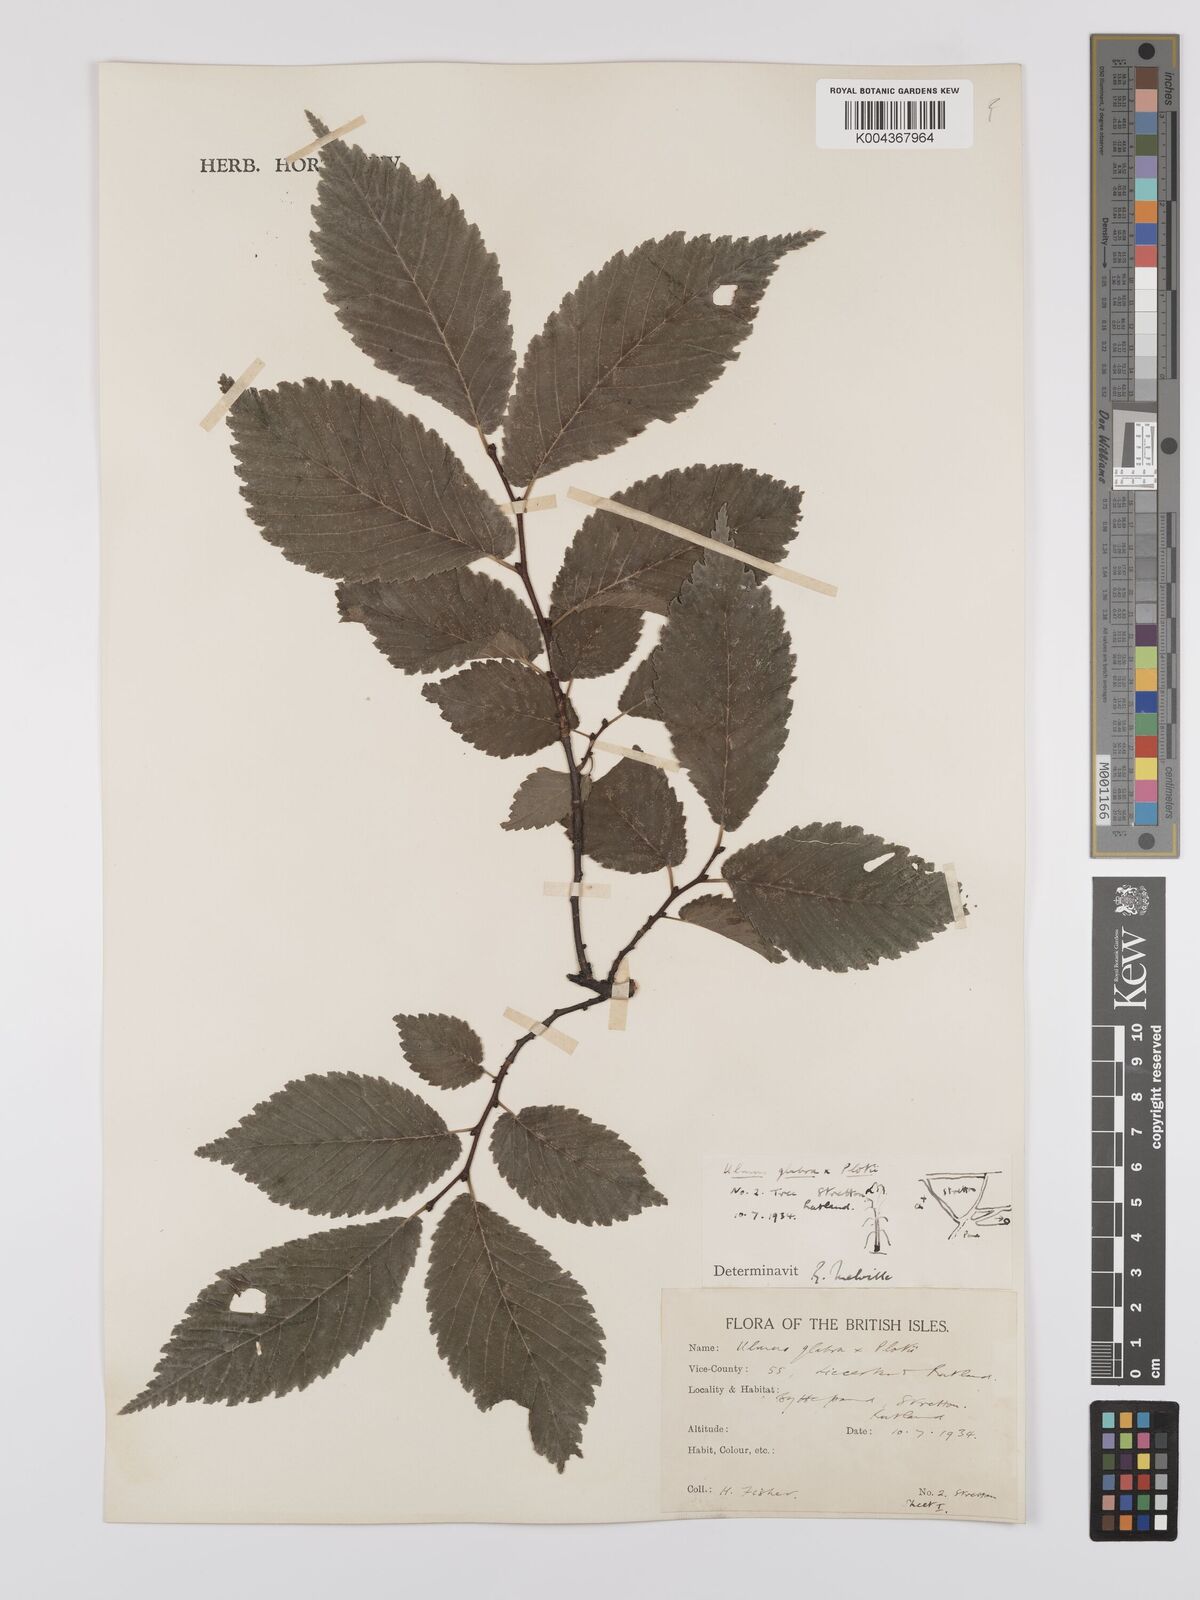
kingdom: Plantae
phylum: Tracheophyta
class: Magnoliopsida
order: Rosales
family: Ulmaceae
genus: Ulmus
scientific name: Ulmus glabra
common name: Wych elm
